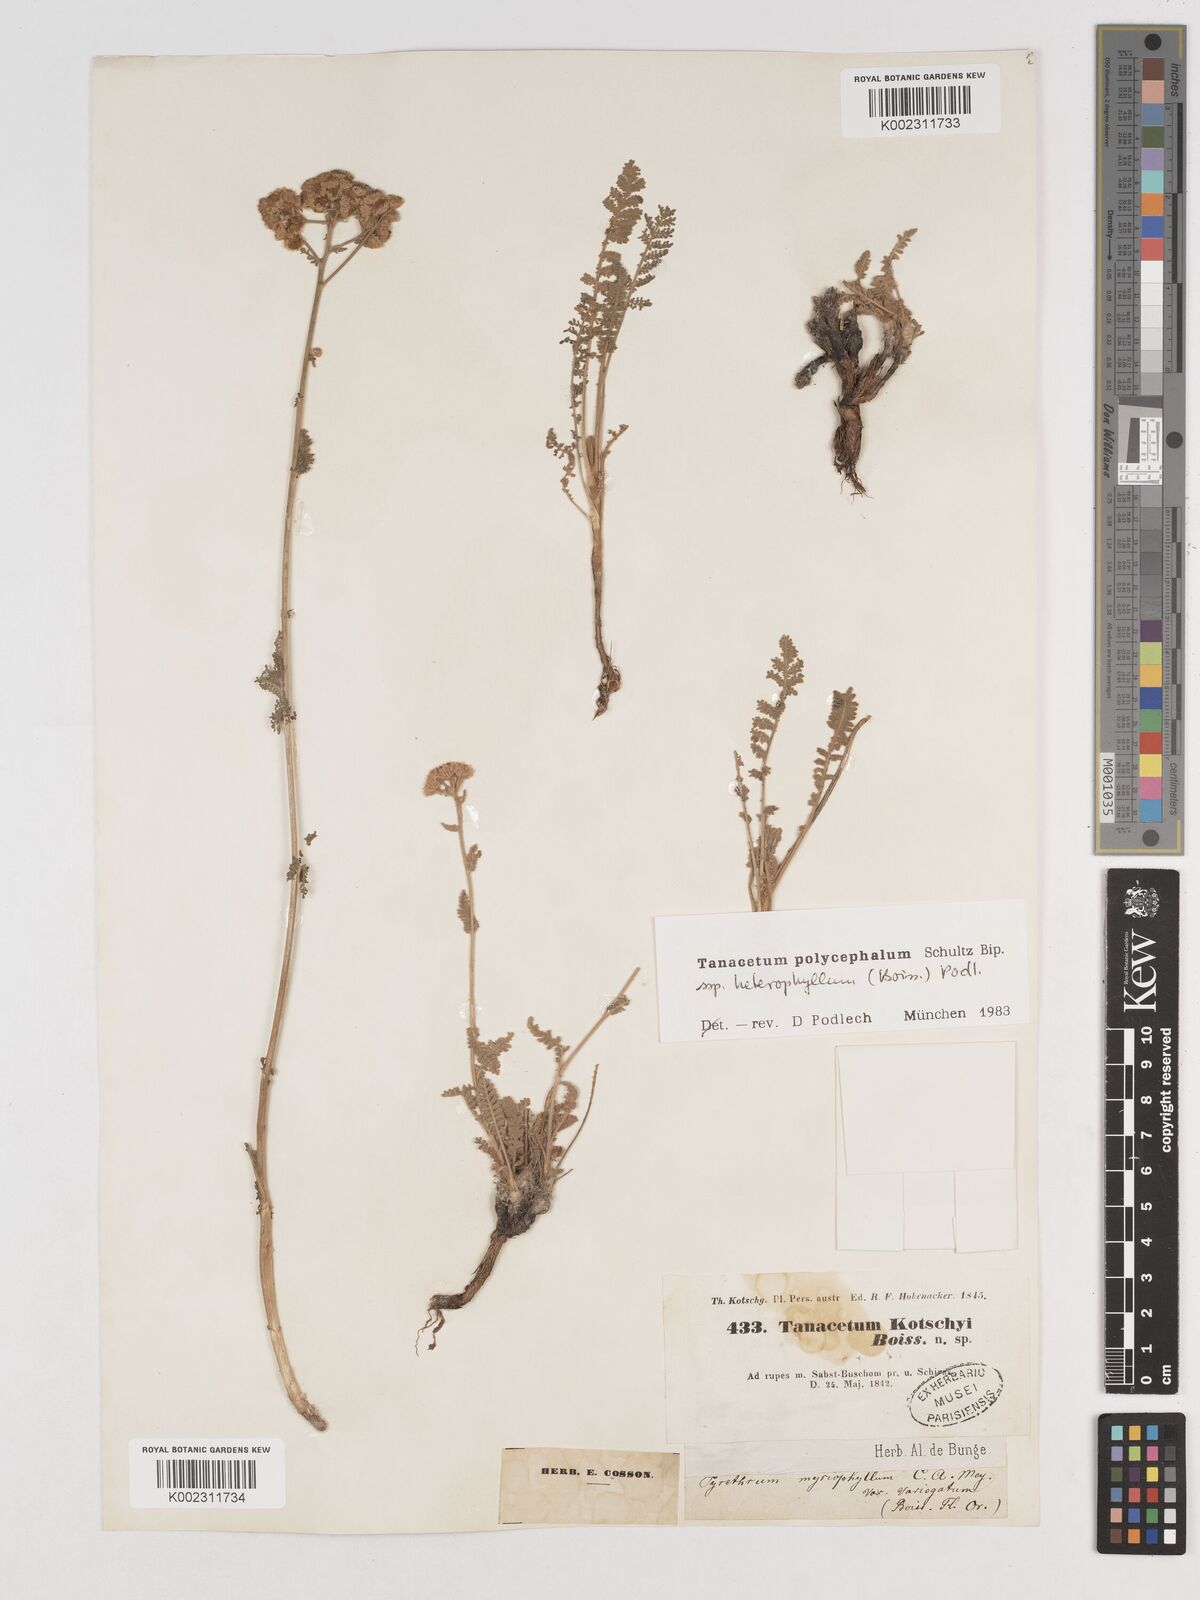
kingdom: Plantae
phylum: Tracheophyta
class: Magnoliopsida
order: Asterales
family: Asteraceae
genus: Tanacetum
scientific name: Tanacetum polycephalum
